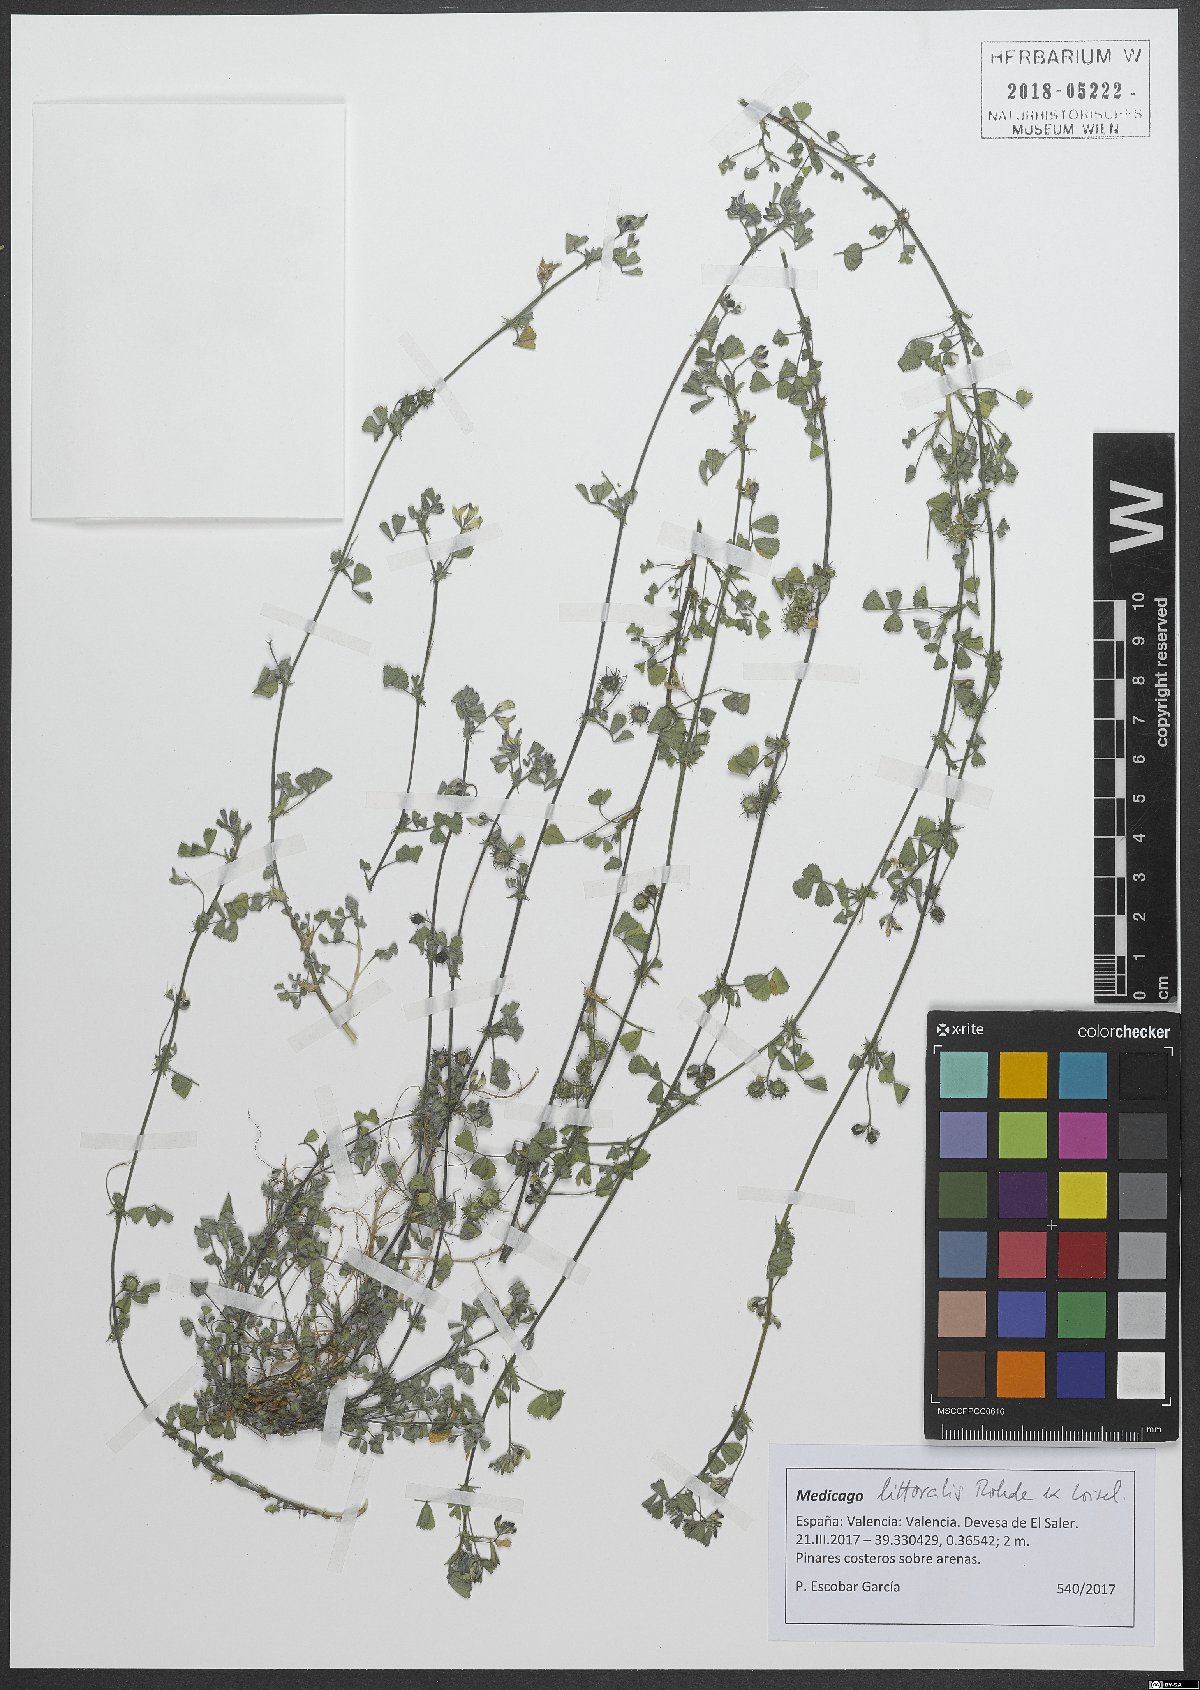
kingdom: Plantae
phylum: Tracheophyta
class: Magnoliopsida
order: Fabales
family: Fabaceae
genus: Medicago
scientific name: Medicago littoralis
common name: Shore medick
